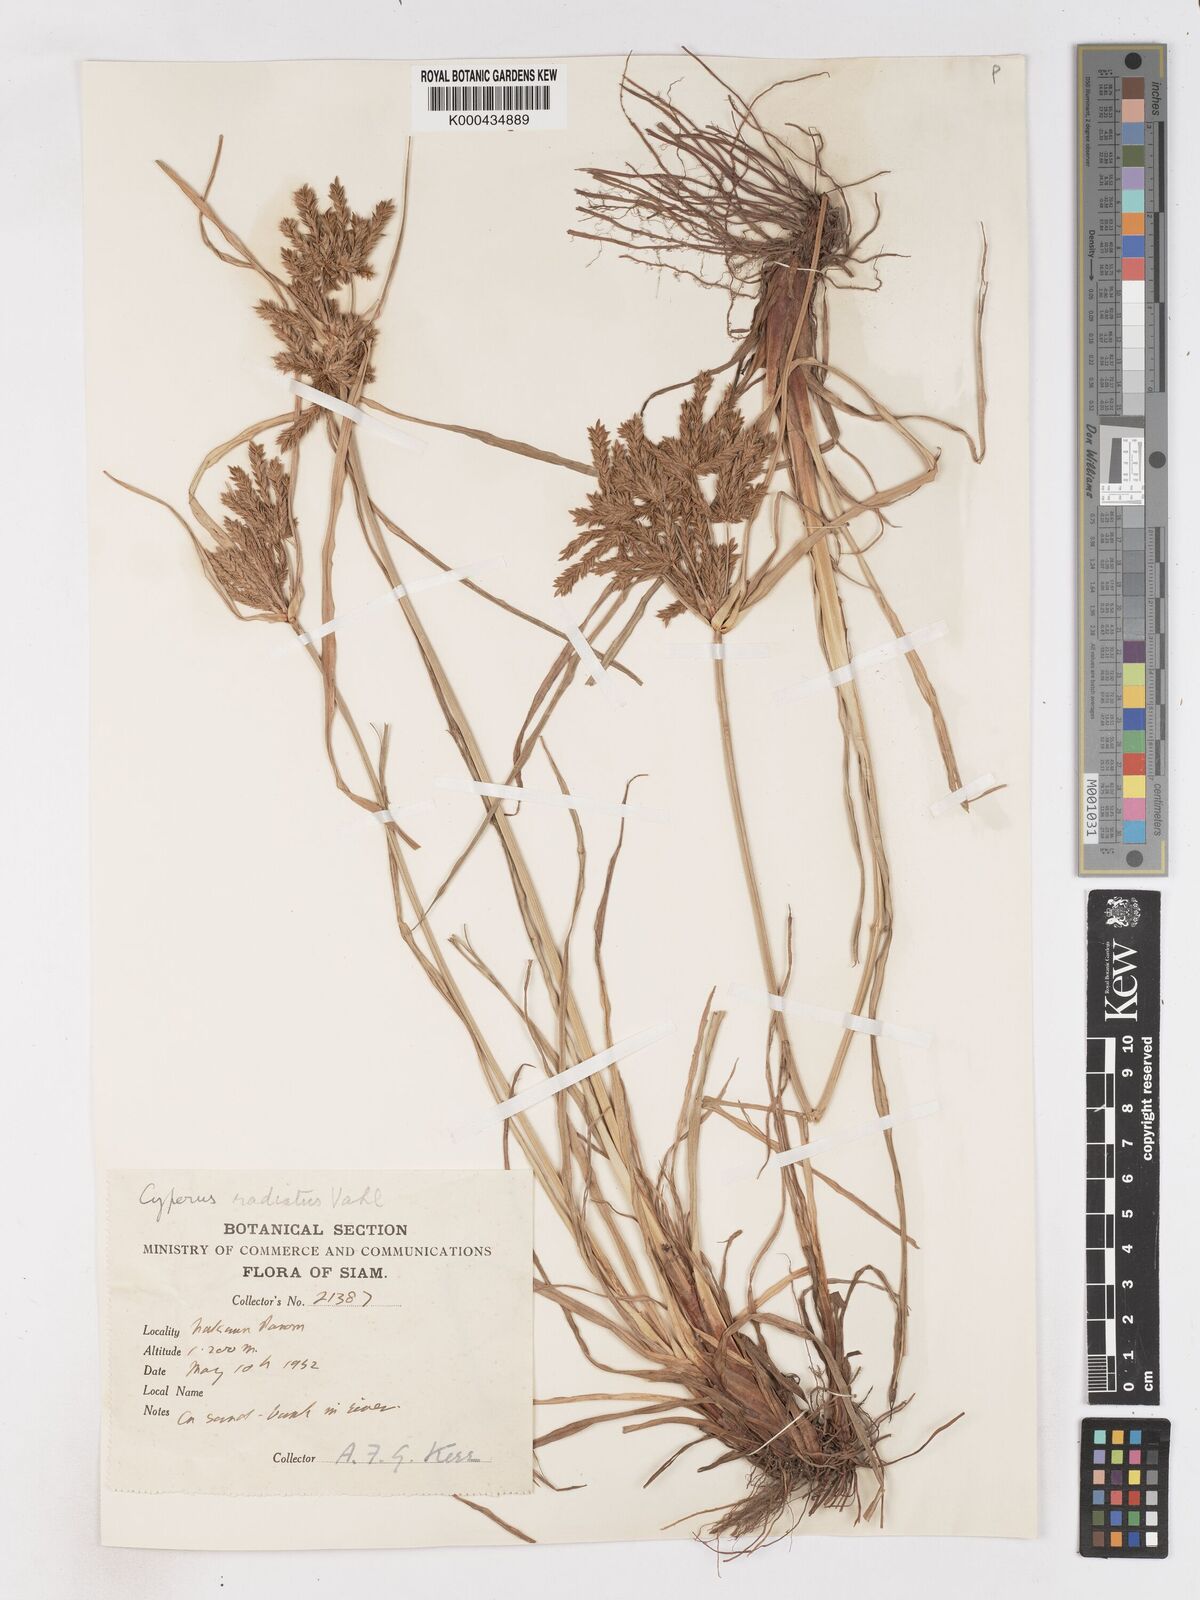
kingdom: Plantae
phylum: Tracheophyta
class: Liliopsida
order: Poales
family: Cyperaceae
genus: Cyperus
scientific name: Cyperus imbricatus
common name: Shingle flatsedge
